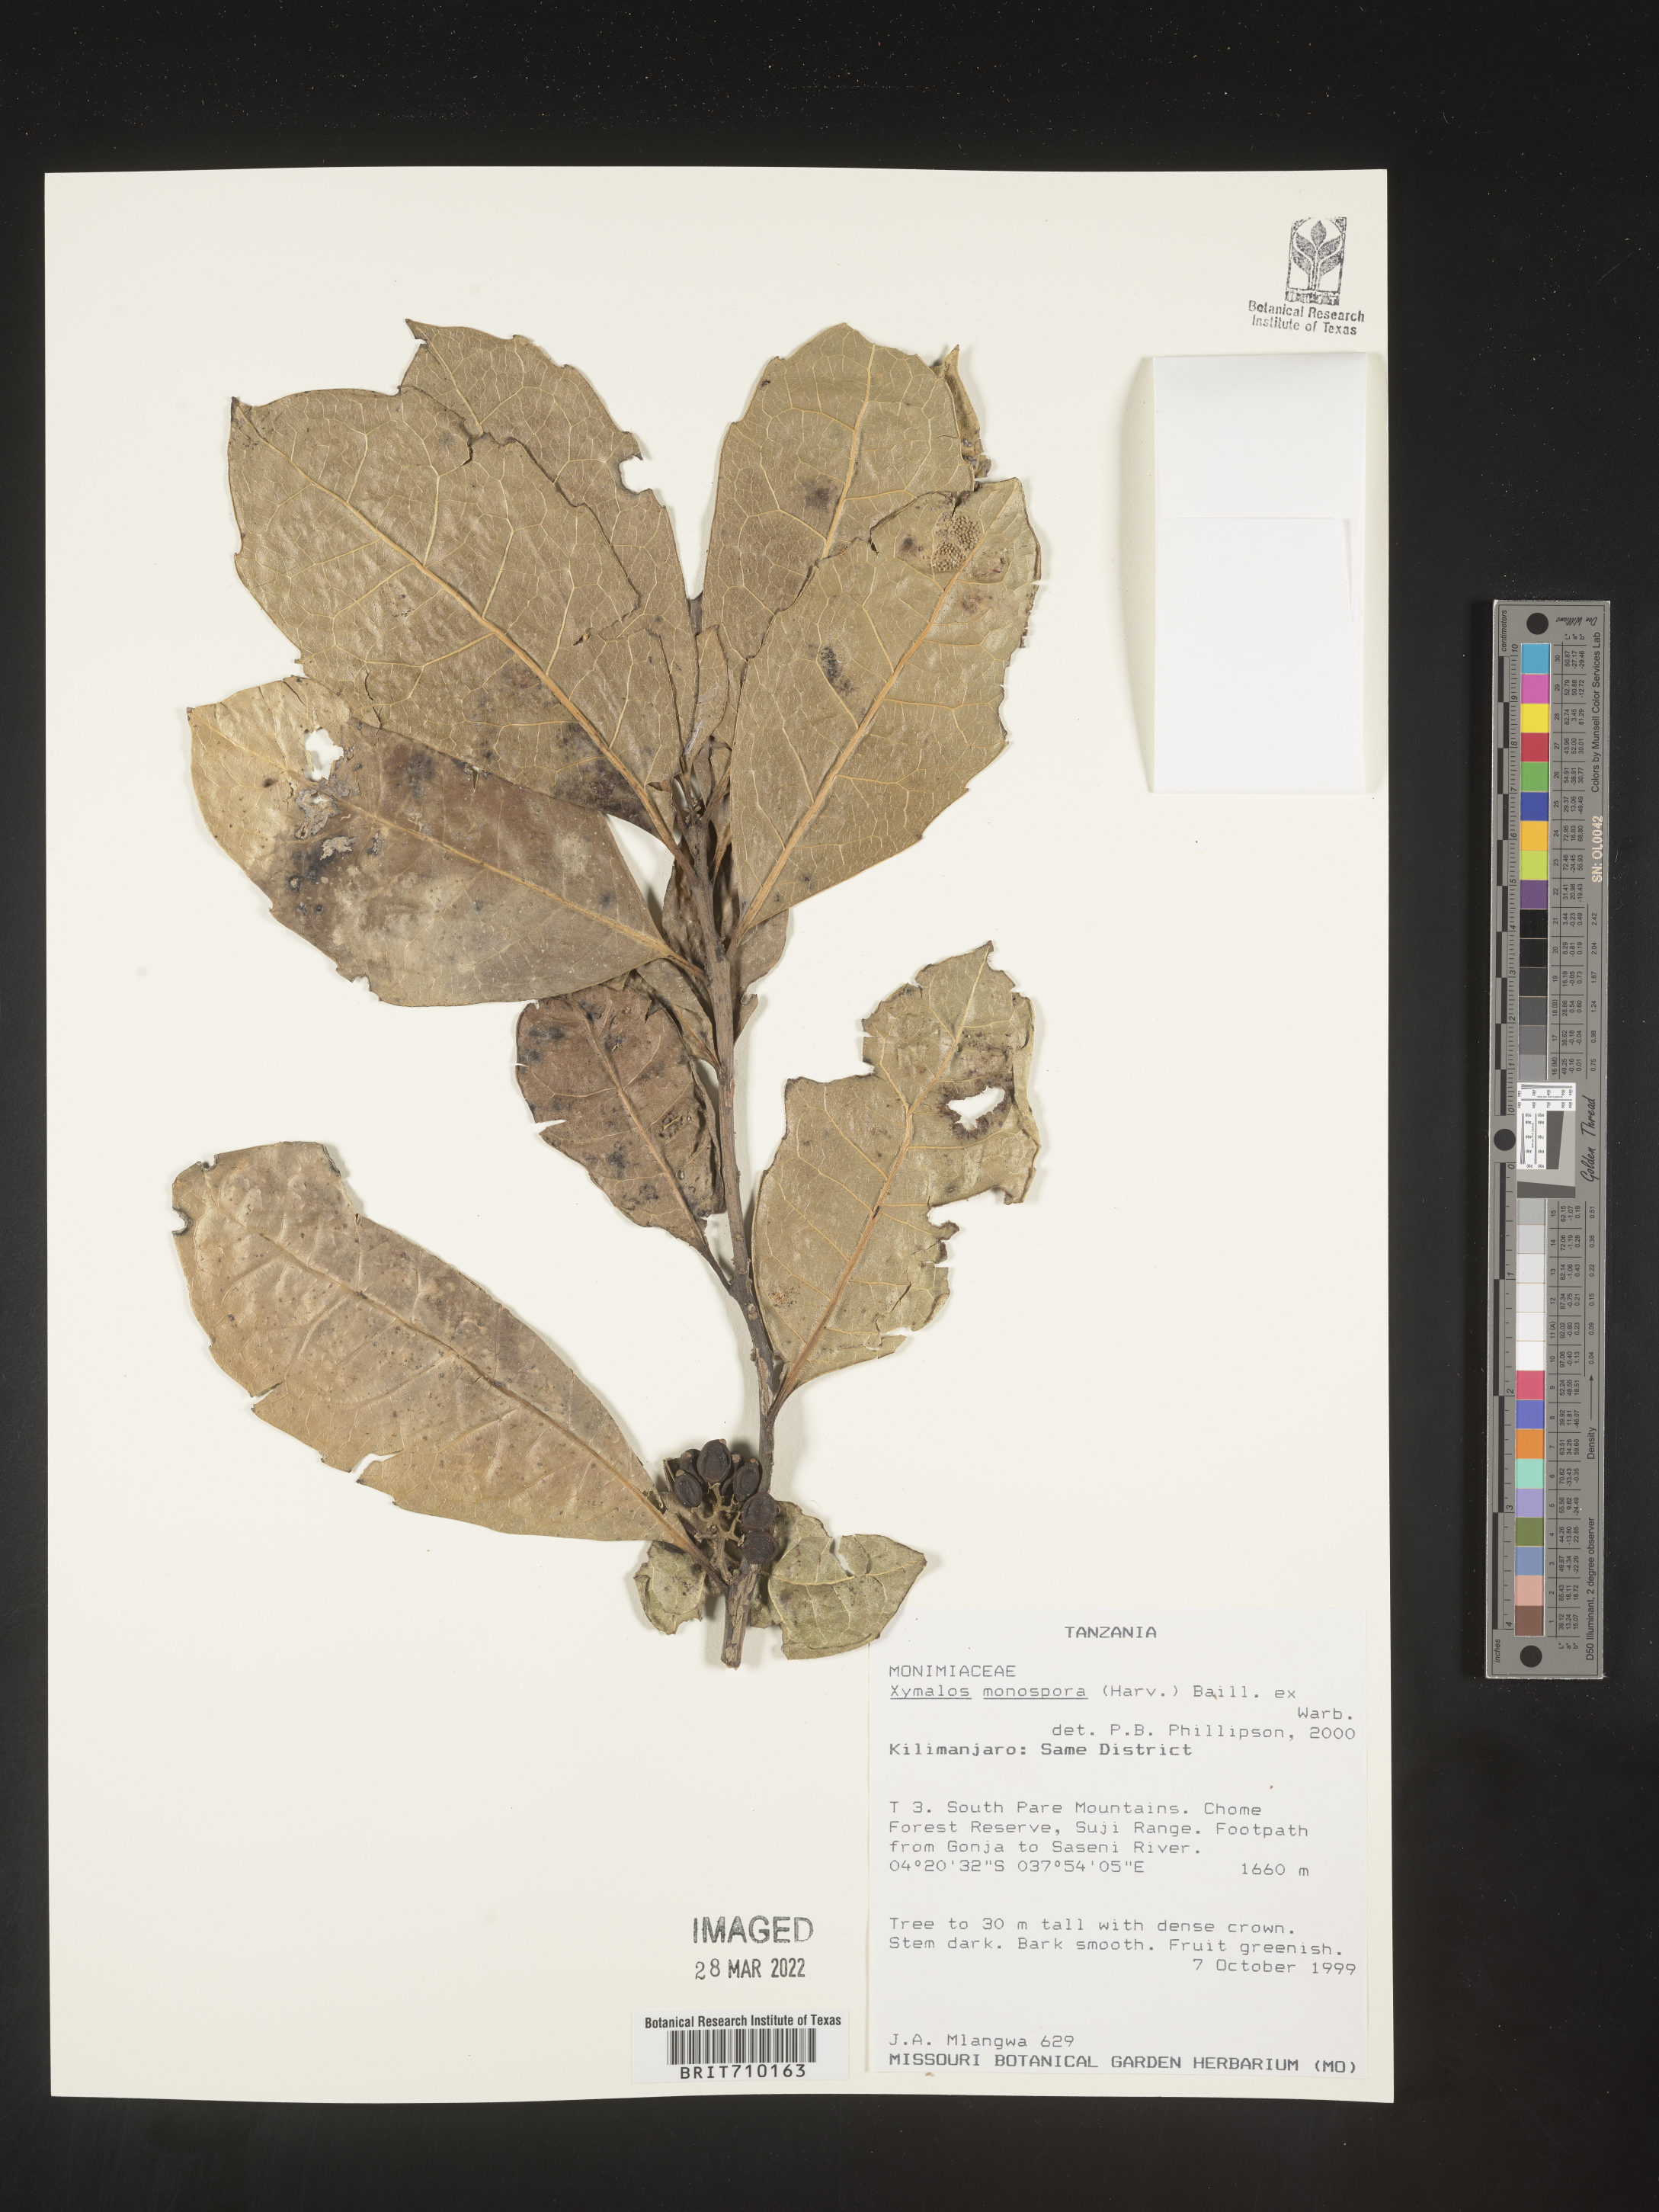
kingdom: Plantae
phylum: Tracheophyta
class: Magnoliopsida
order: Laurales
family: Monimiaceae
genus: Xymalos
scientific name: Xymalos
